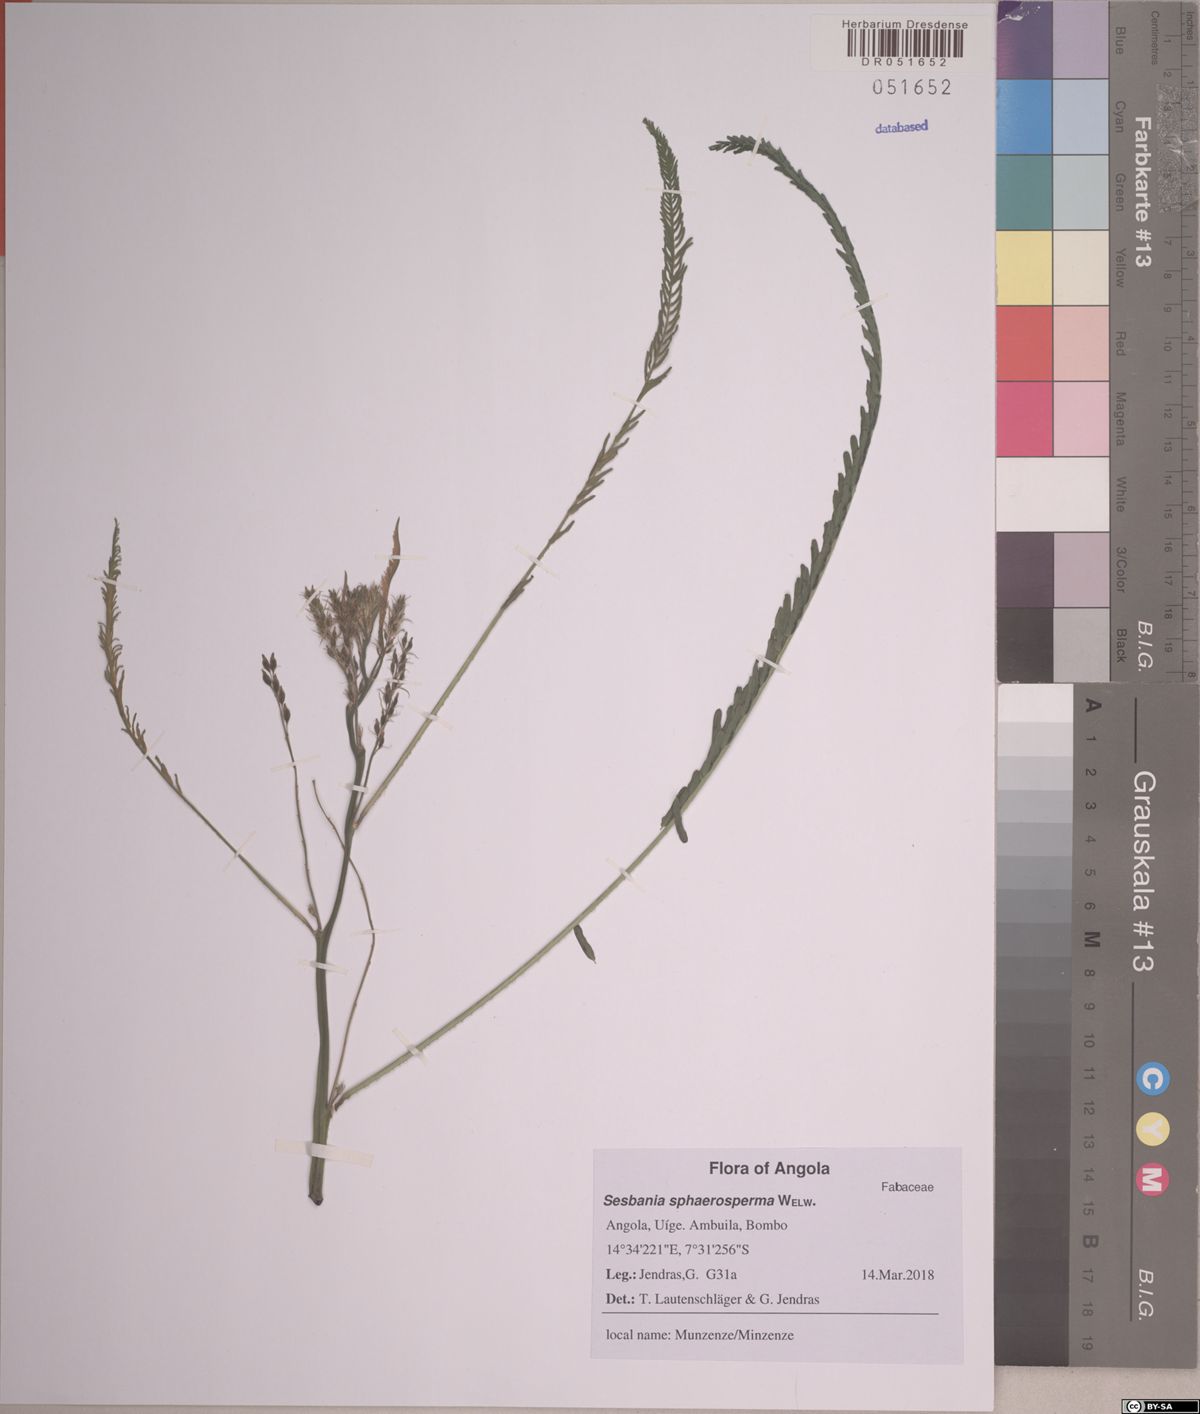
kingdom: Plantae
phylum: Tracheophyta
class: Magnoliopsida
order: Fabales
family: Fabaceae
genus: Sesbania
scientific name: Sesbania
